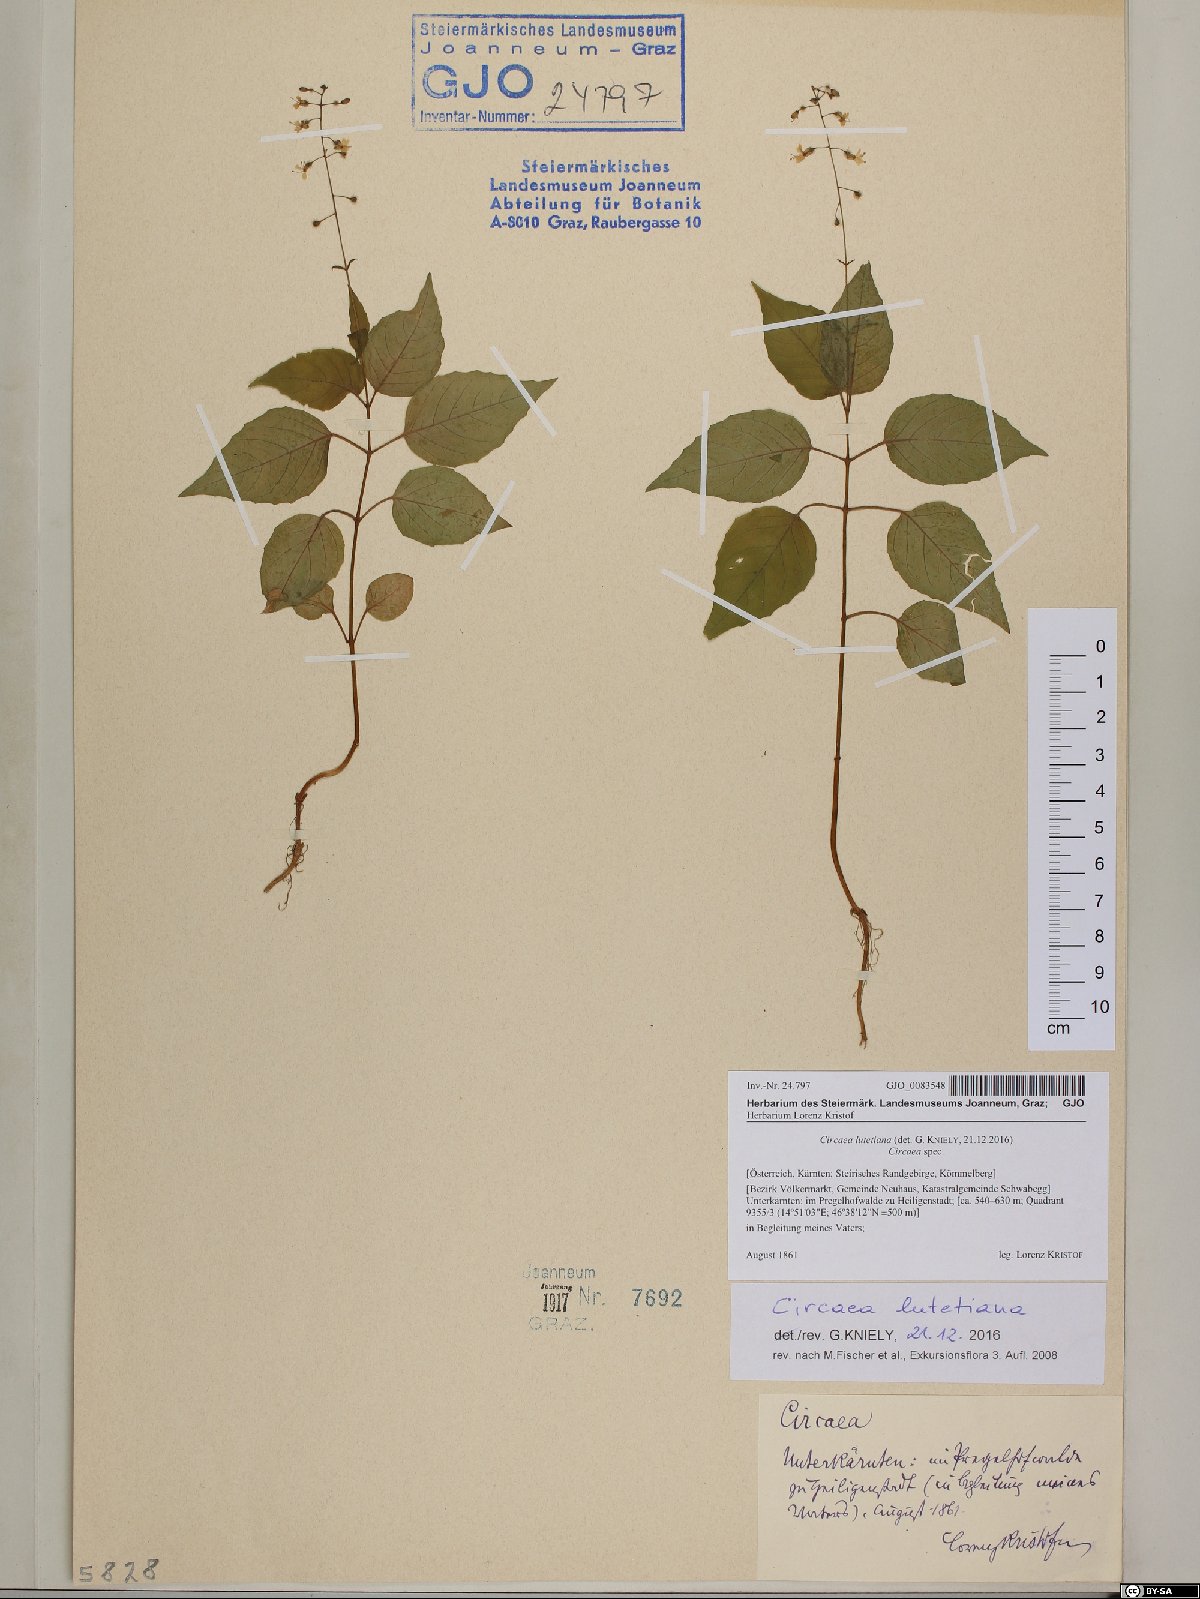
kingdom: Plantae
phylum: Tracheophyta
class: Magnoliopsida
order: Myrtales
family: Onagraceae
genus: Circaea
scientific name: Circaea lutetiana
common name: Enchanter's-nightshade
